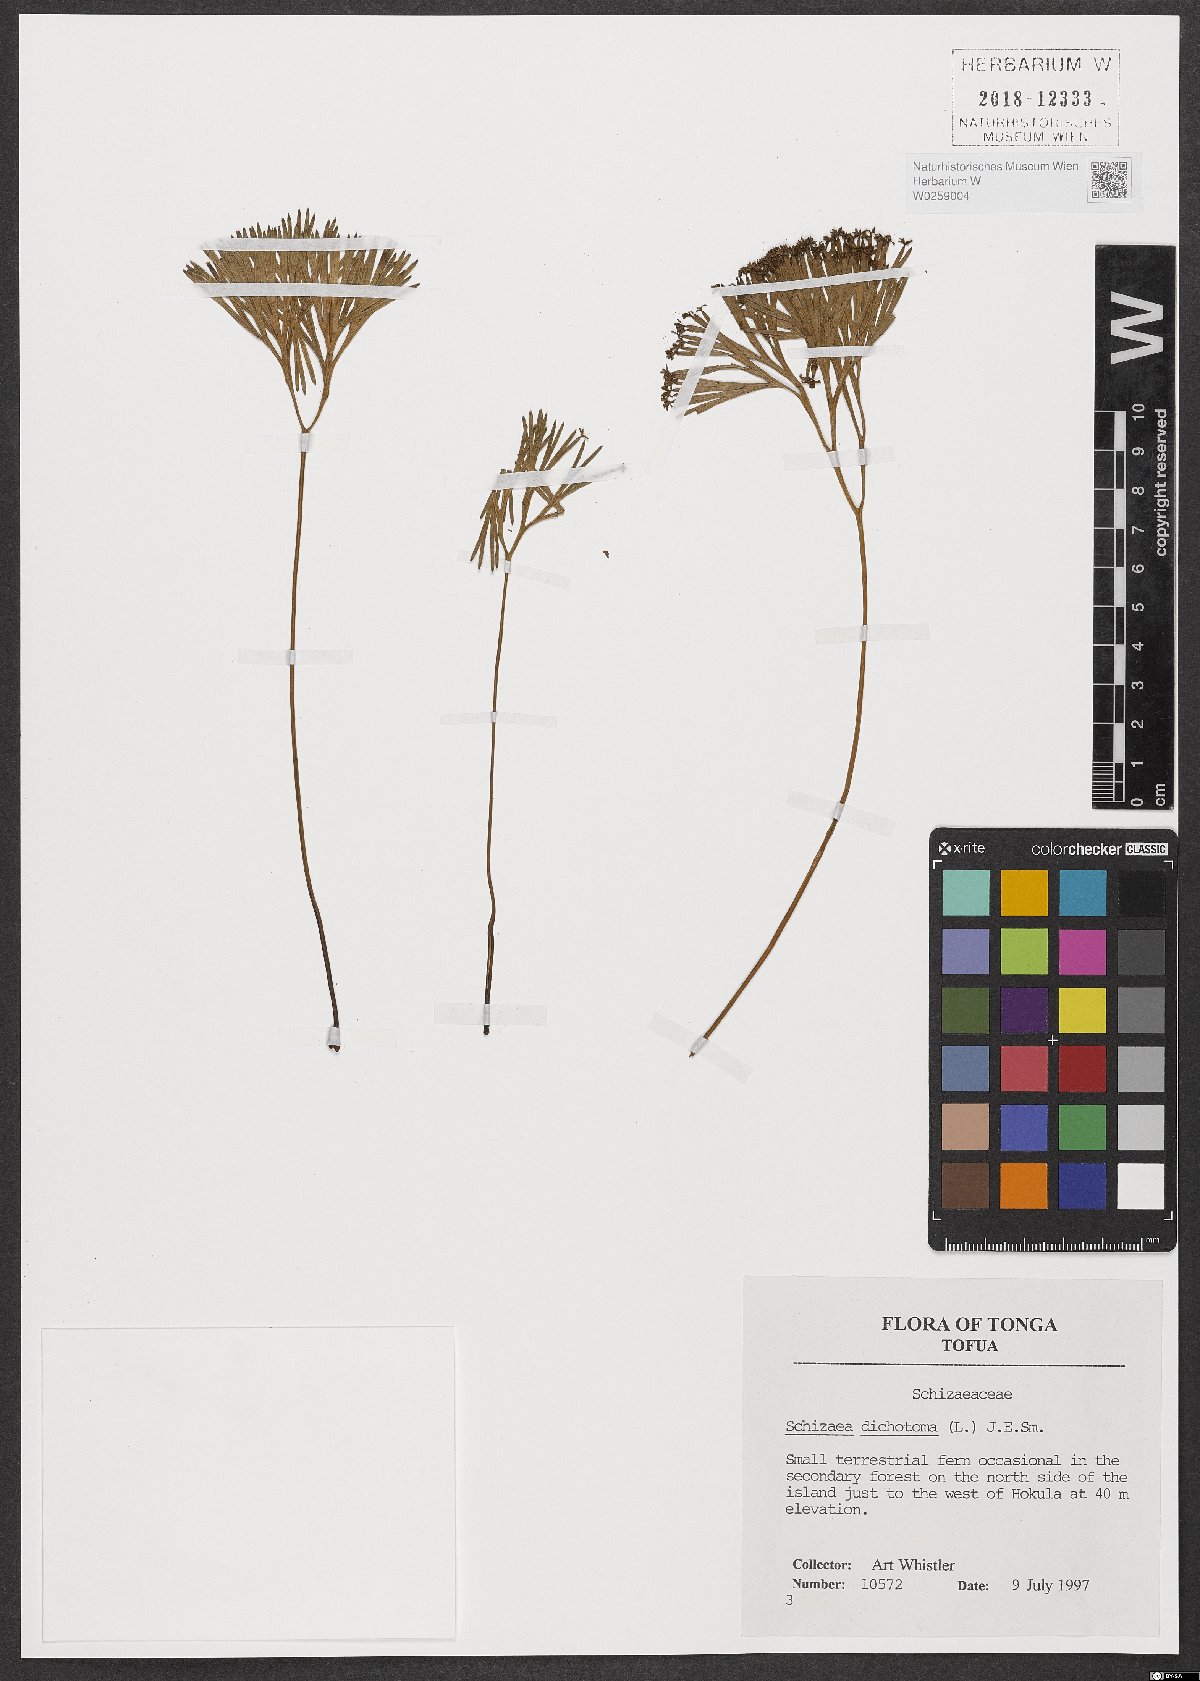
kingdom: Plantae
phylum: Tracheophyta
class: Polypodiopsida
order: Schizaeales
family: Schizaeaceae
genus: Schizaea
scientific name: Schizaea dichotoma
